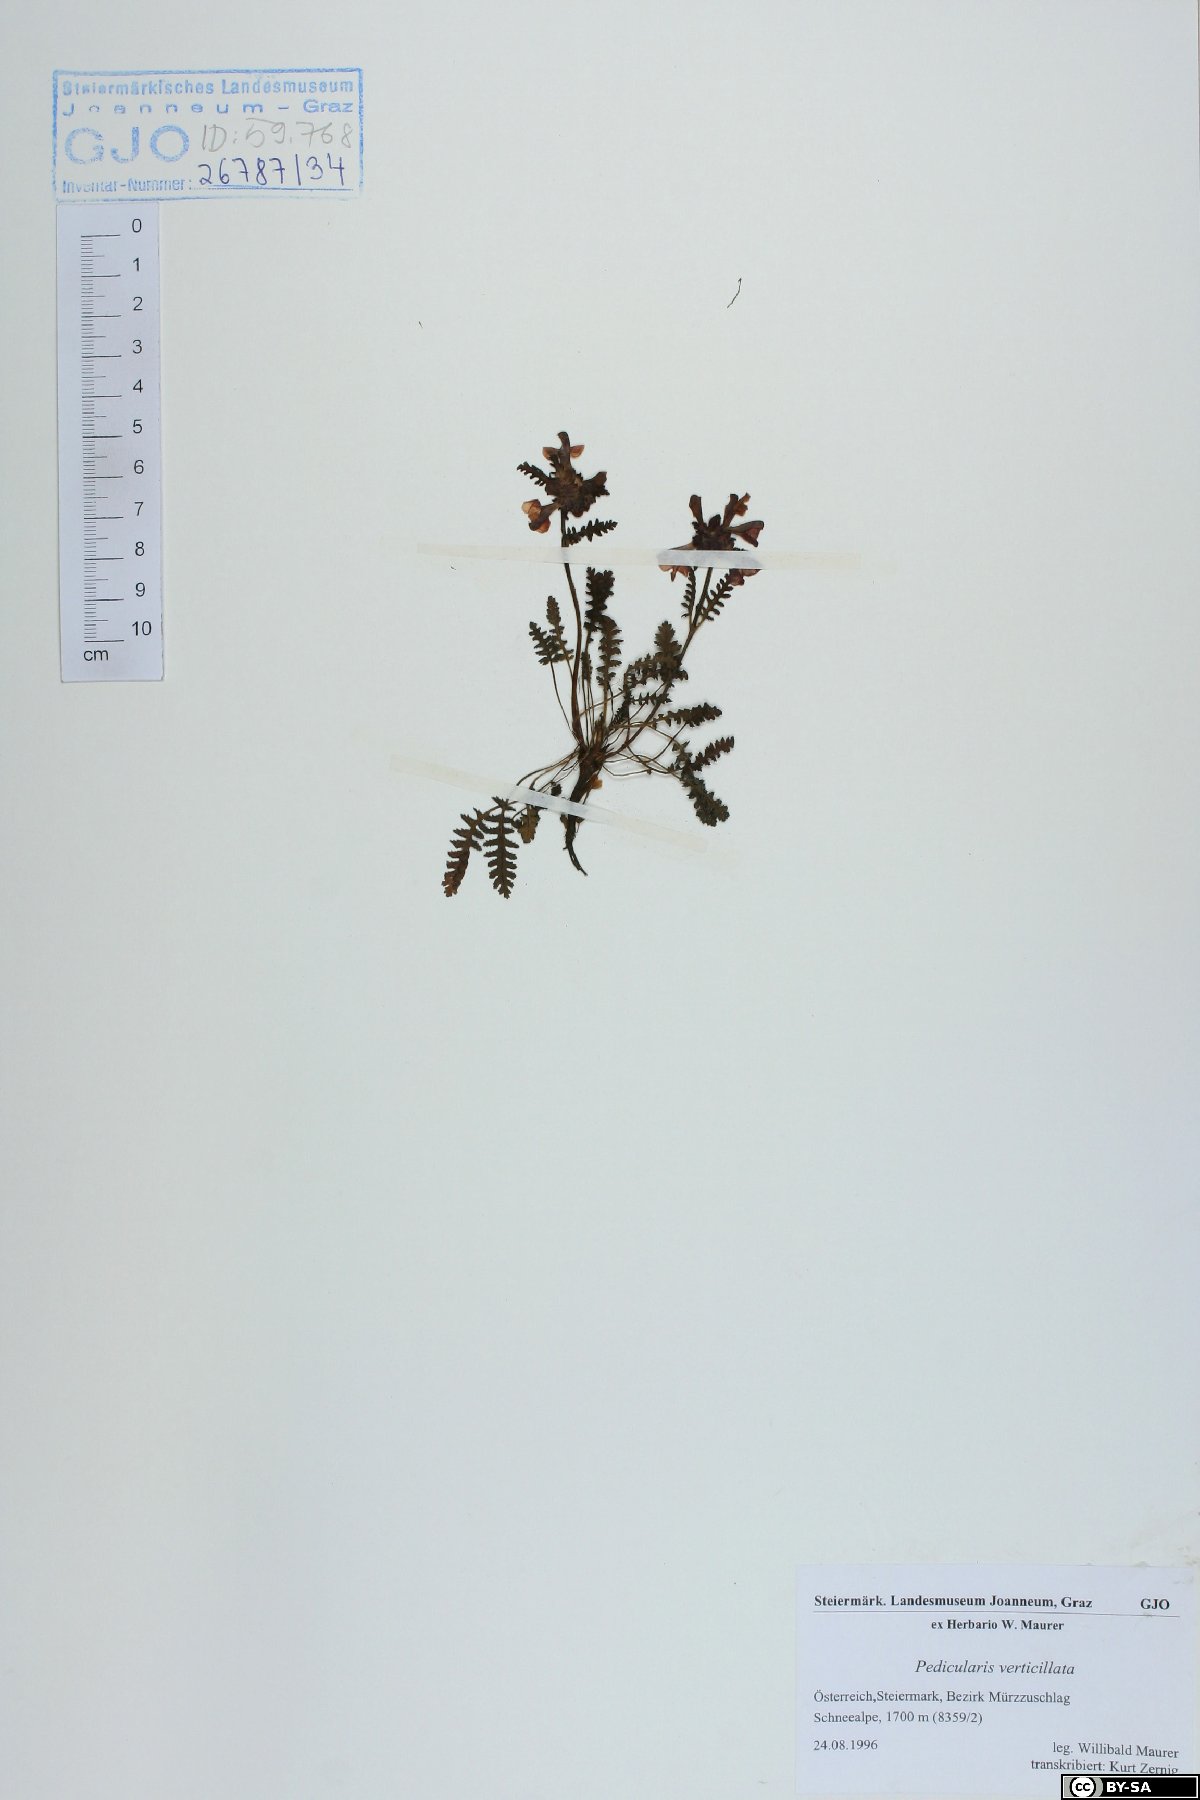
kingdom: Plantae
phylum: Tracheophyta
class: Magnoliopsida
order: Lamiales
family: Orobanchaceae
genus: Pedicularis
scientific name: Pedicularis verticillata
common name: Whorled lousewort
